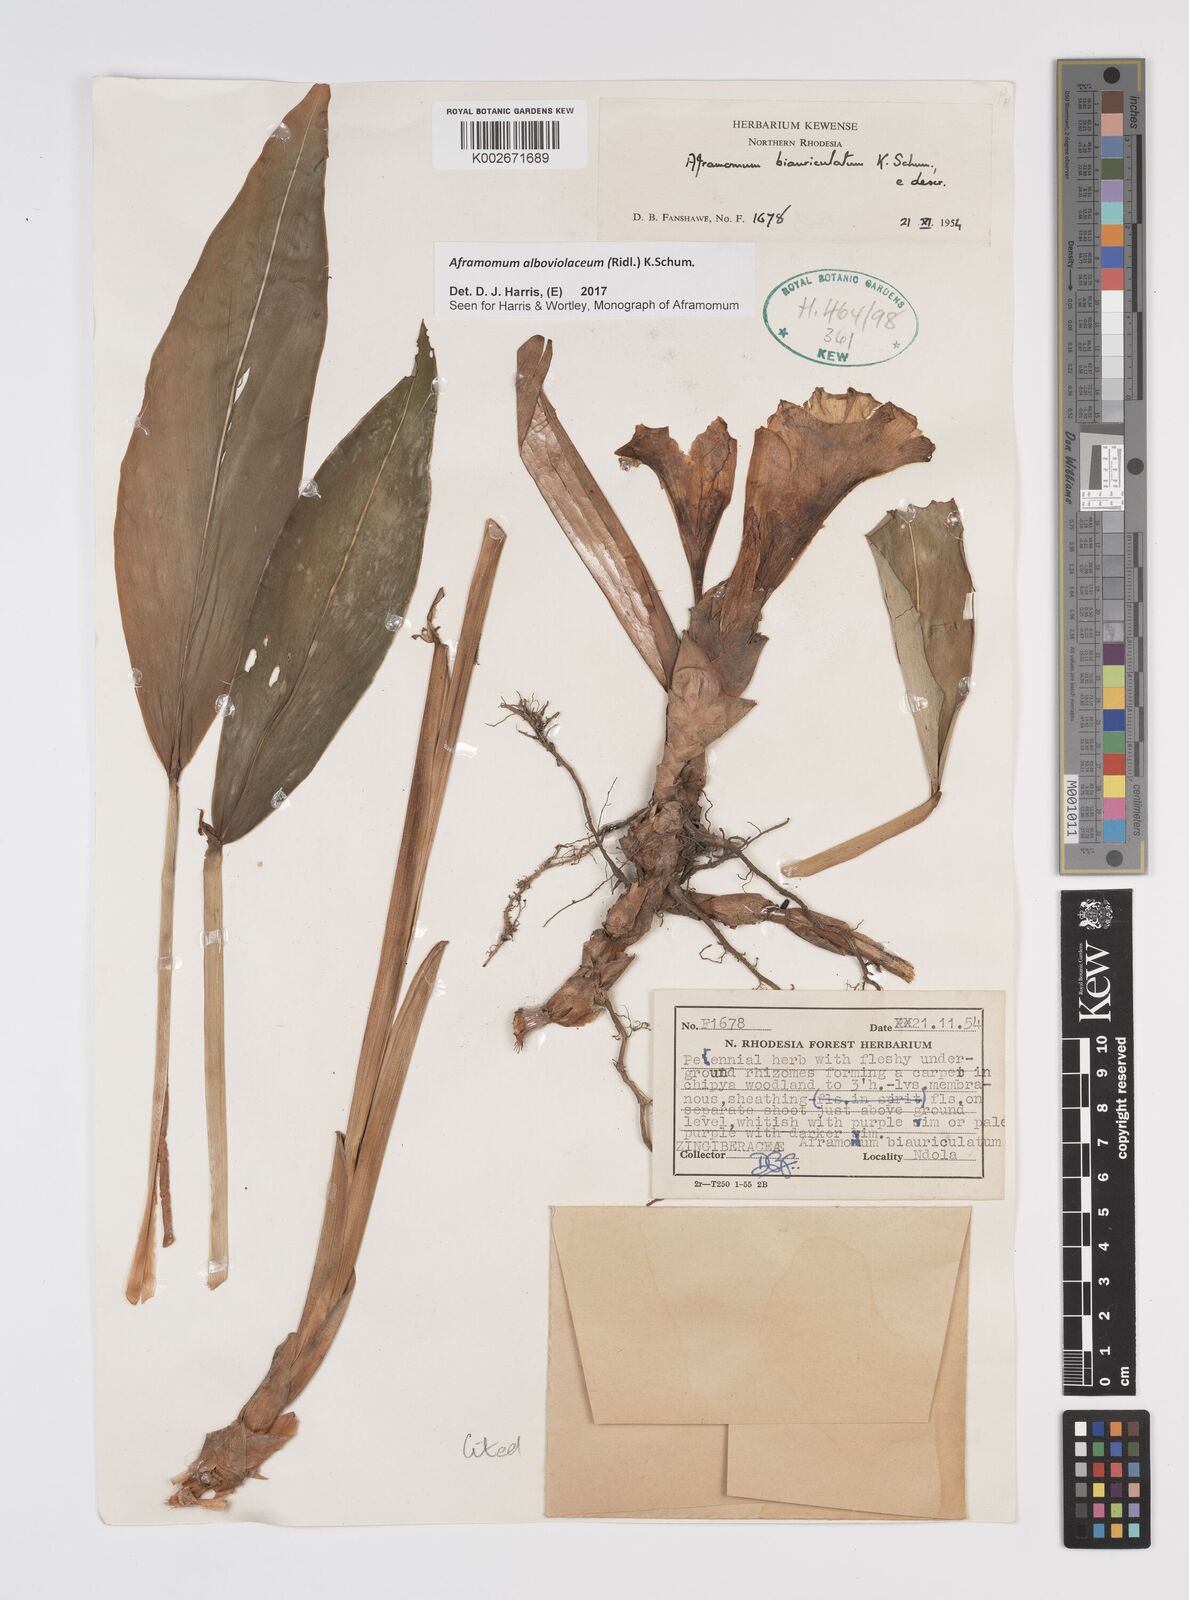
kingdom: Plantae
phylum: Tracheophyta
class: Liliopsida
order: Zingiberales
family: Zingiberaceae
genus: Aframomum
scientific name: Aframomum alboviolaceum
